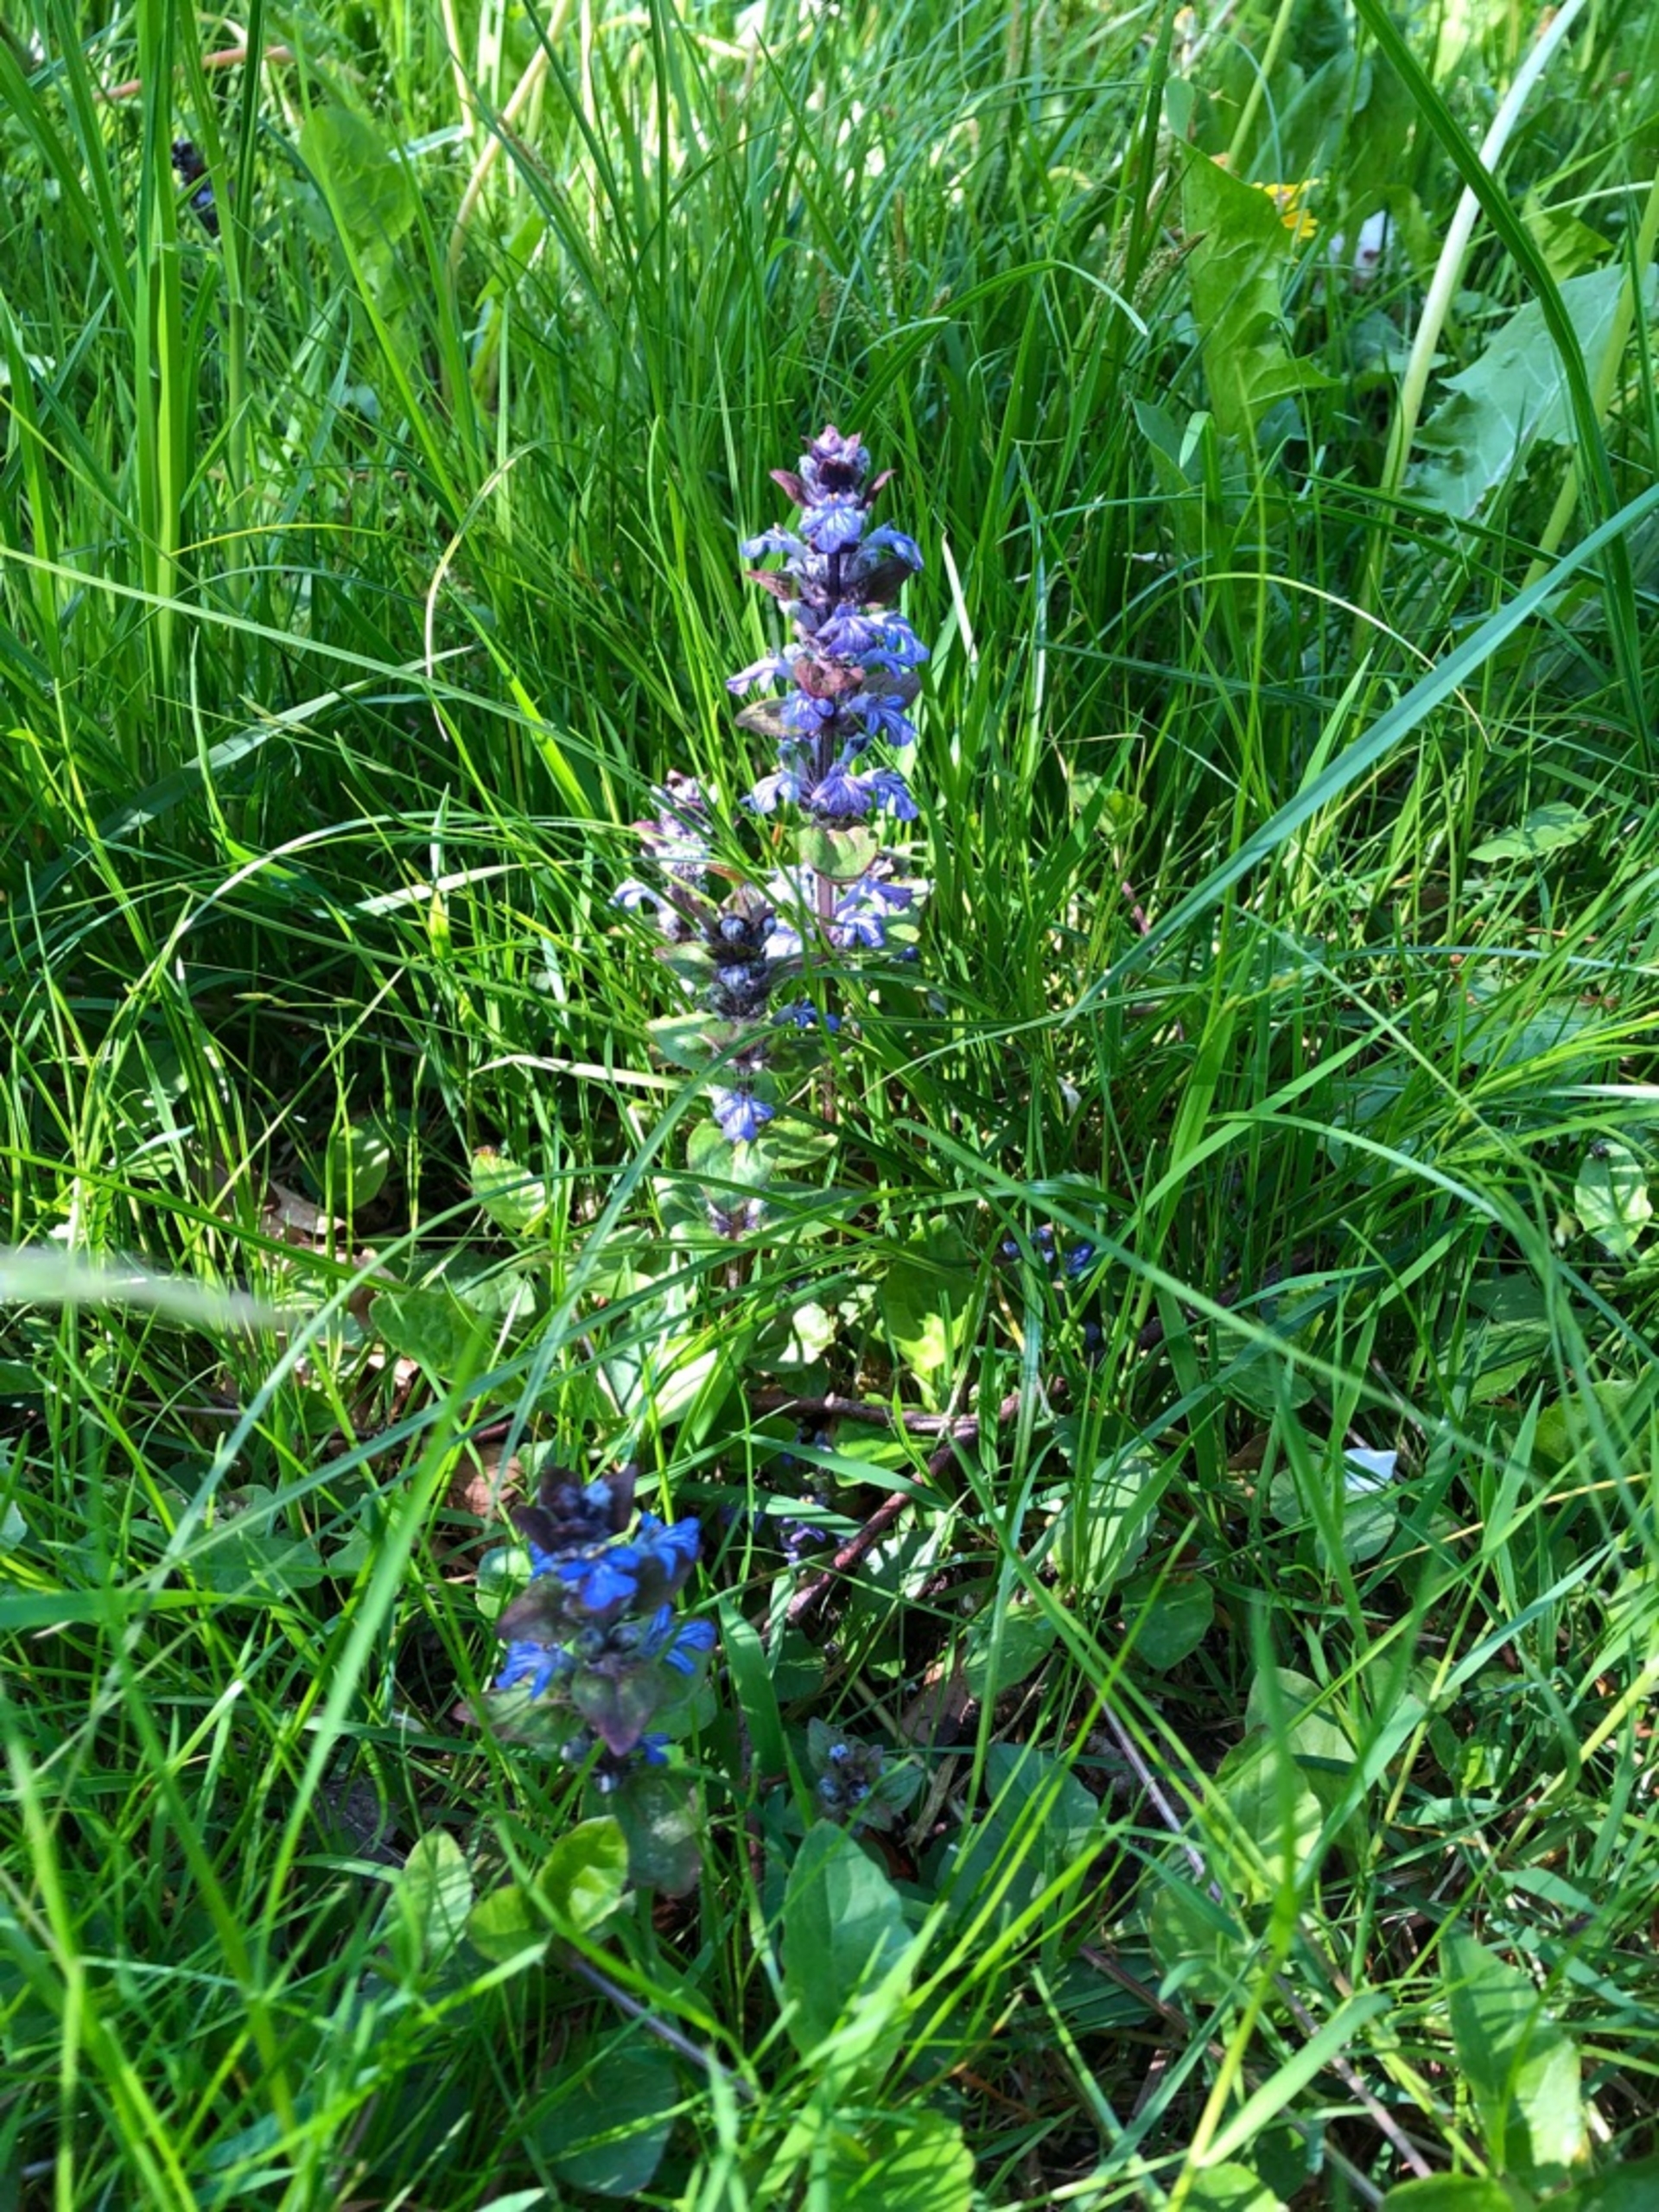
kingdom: Plantae
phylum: Tracheophyta
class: Magnoliopsida
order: Lamiales
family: Lamiaceae
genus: Ajuga
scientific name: Ajuga reptans
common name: Krybende læbeløs
